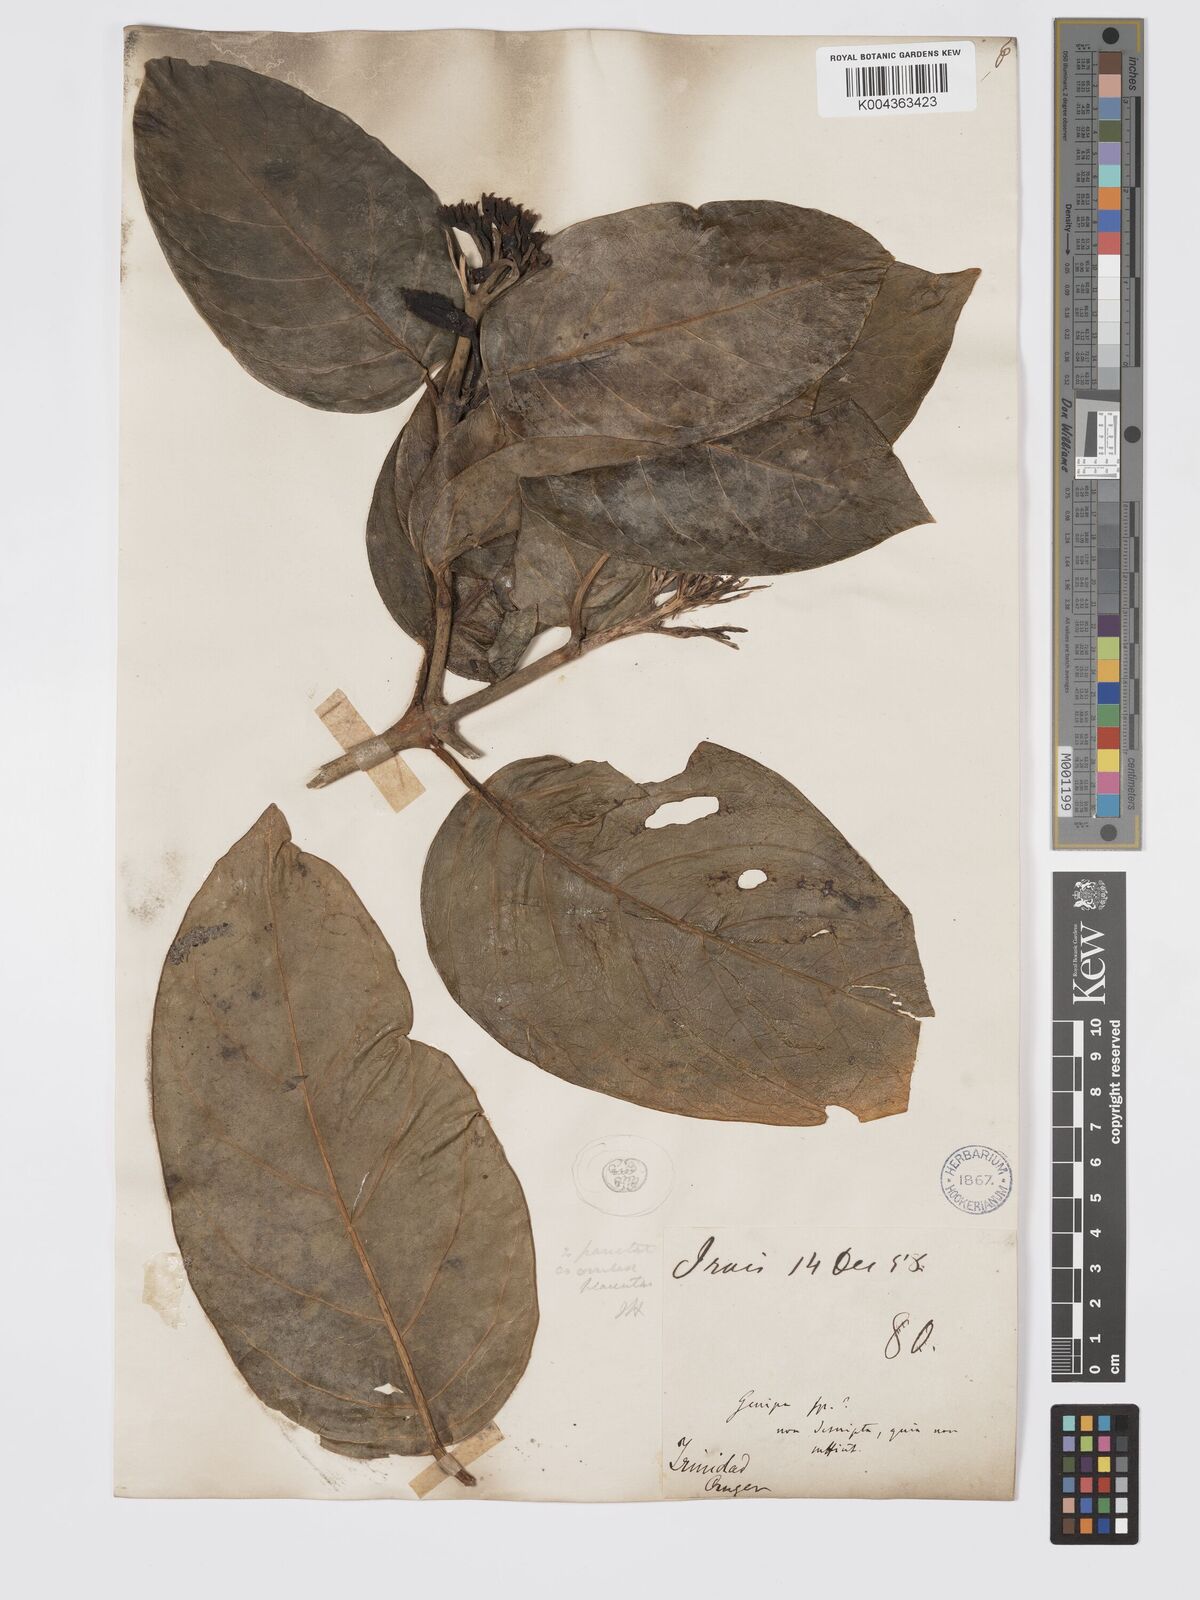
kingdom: Plantae
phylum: Tracheophyta
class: Magnoliopsida
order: Gentianales
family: Rubiaceae
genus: Posoqueria
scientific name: Posoqueria latifolia
